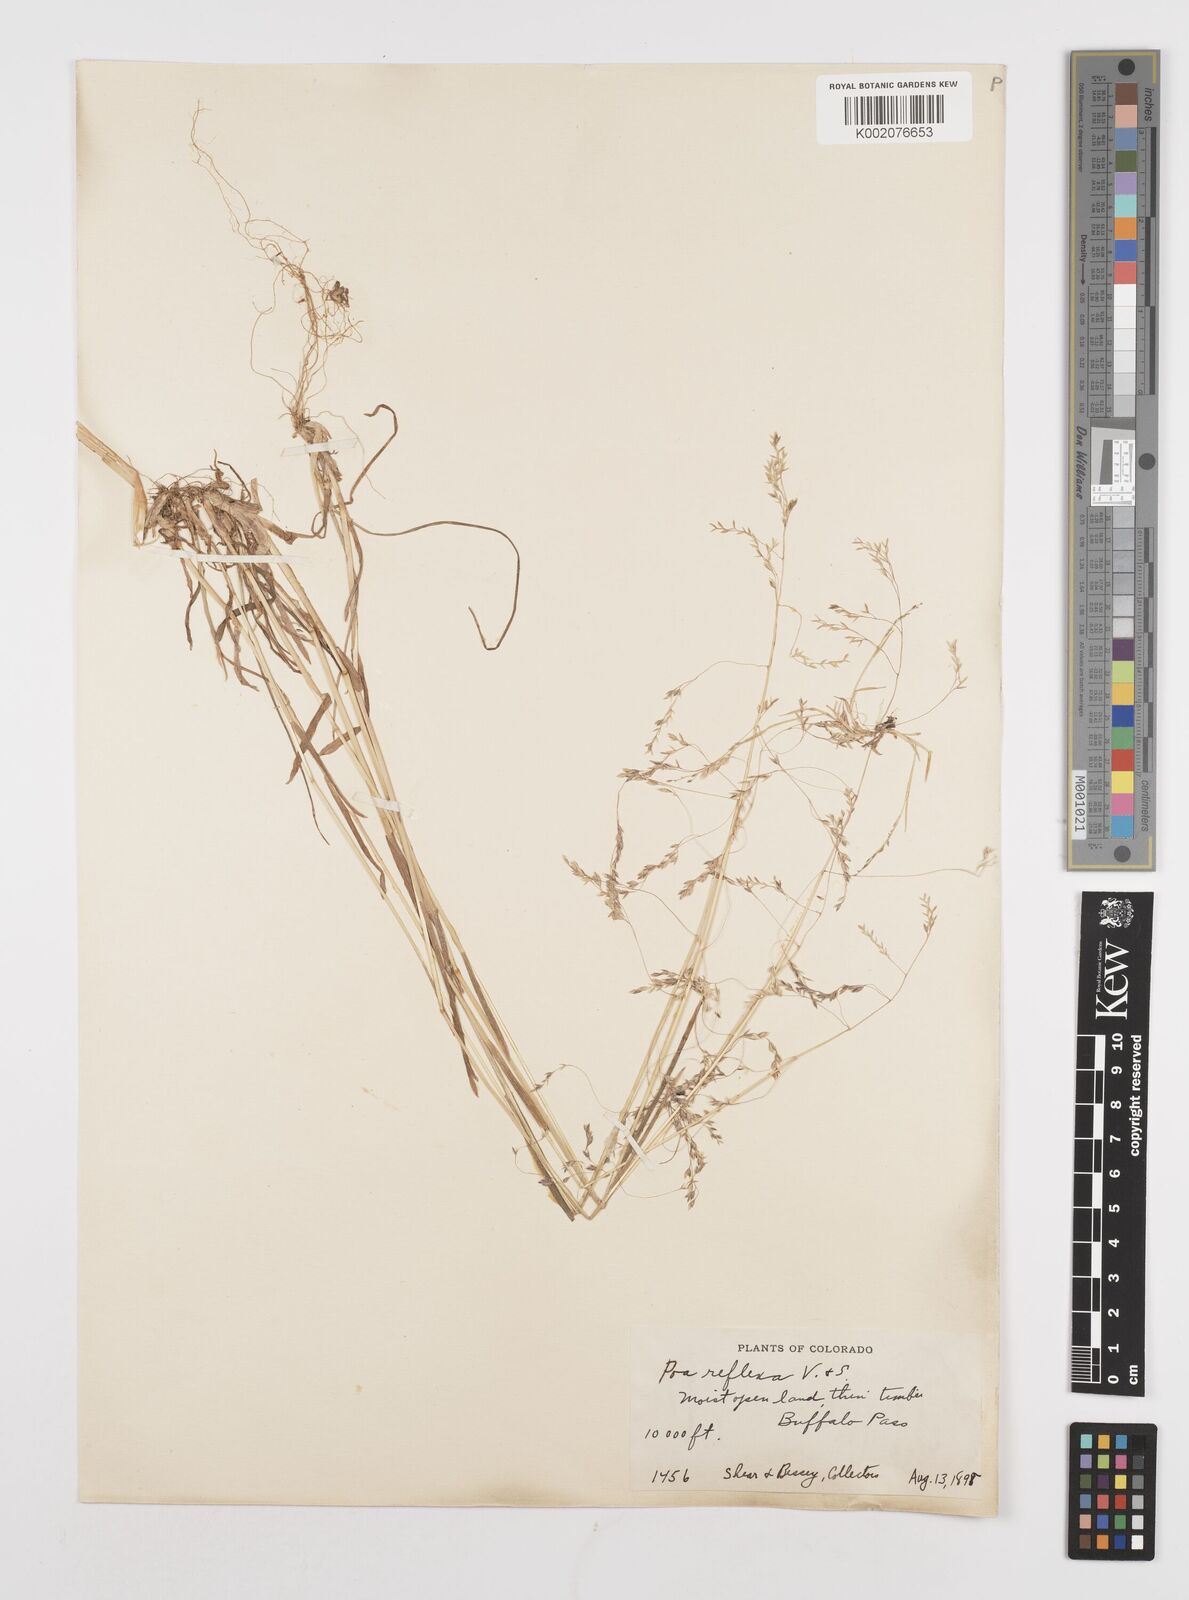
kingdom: Plantae
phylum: Tracheophyta
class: Liliopsida
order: Poales
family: Poaceae
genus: Poa
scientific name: Poa reflexa
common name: Nodding bluegrass
